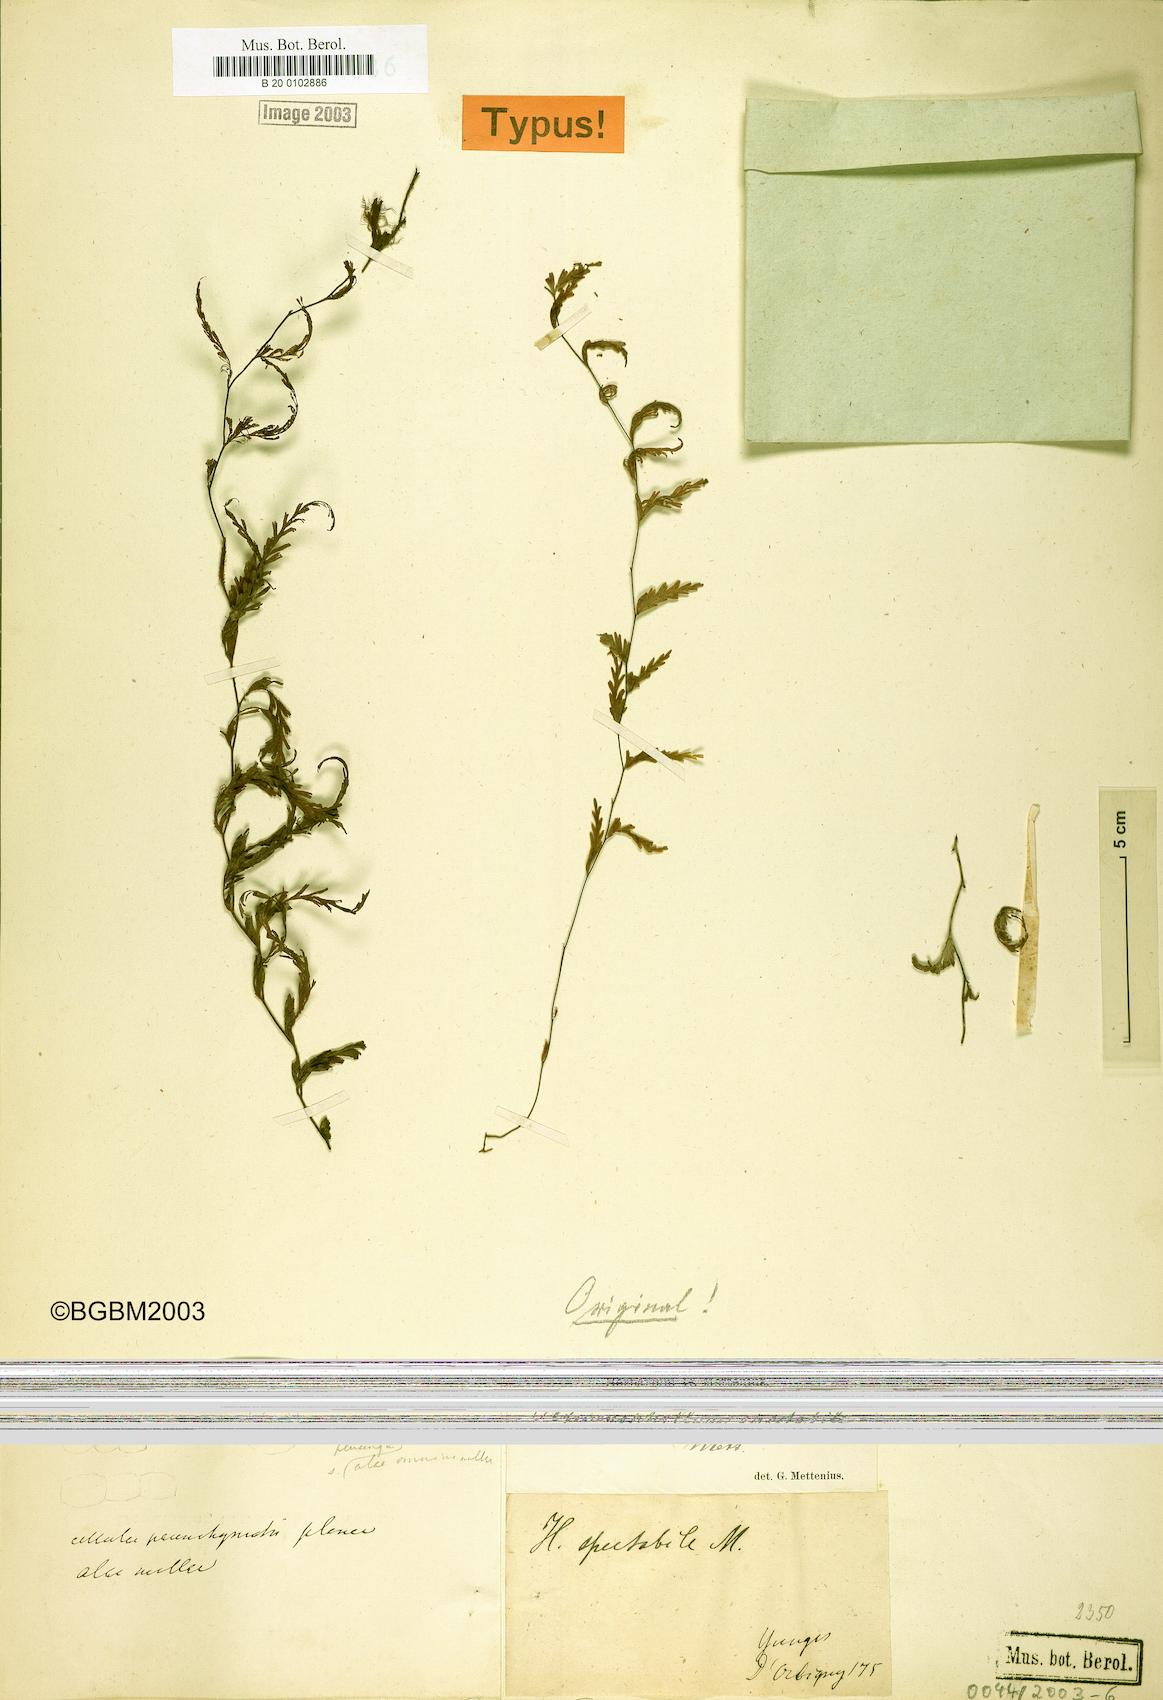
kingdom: Plantae
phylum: Tracheophyta
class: Polypodiopsida
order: Hymenophyllales
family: Hymenophyllaceae
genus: Hymenophyllum
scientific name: Hymenophyllum lindenii
